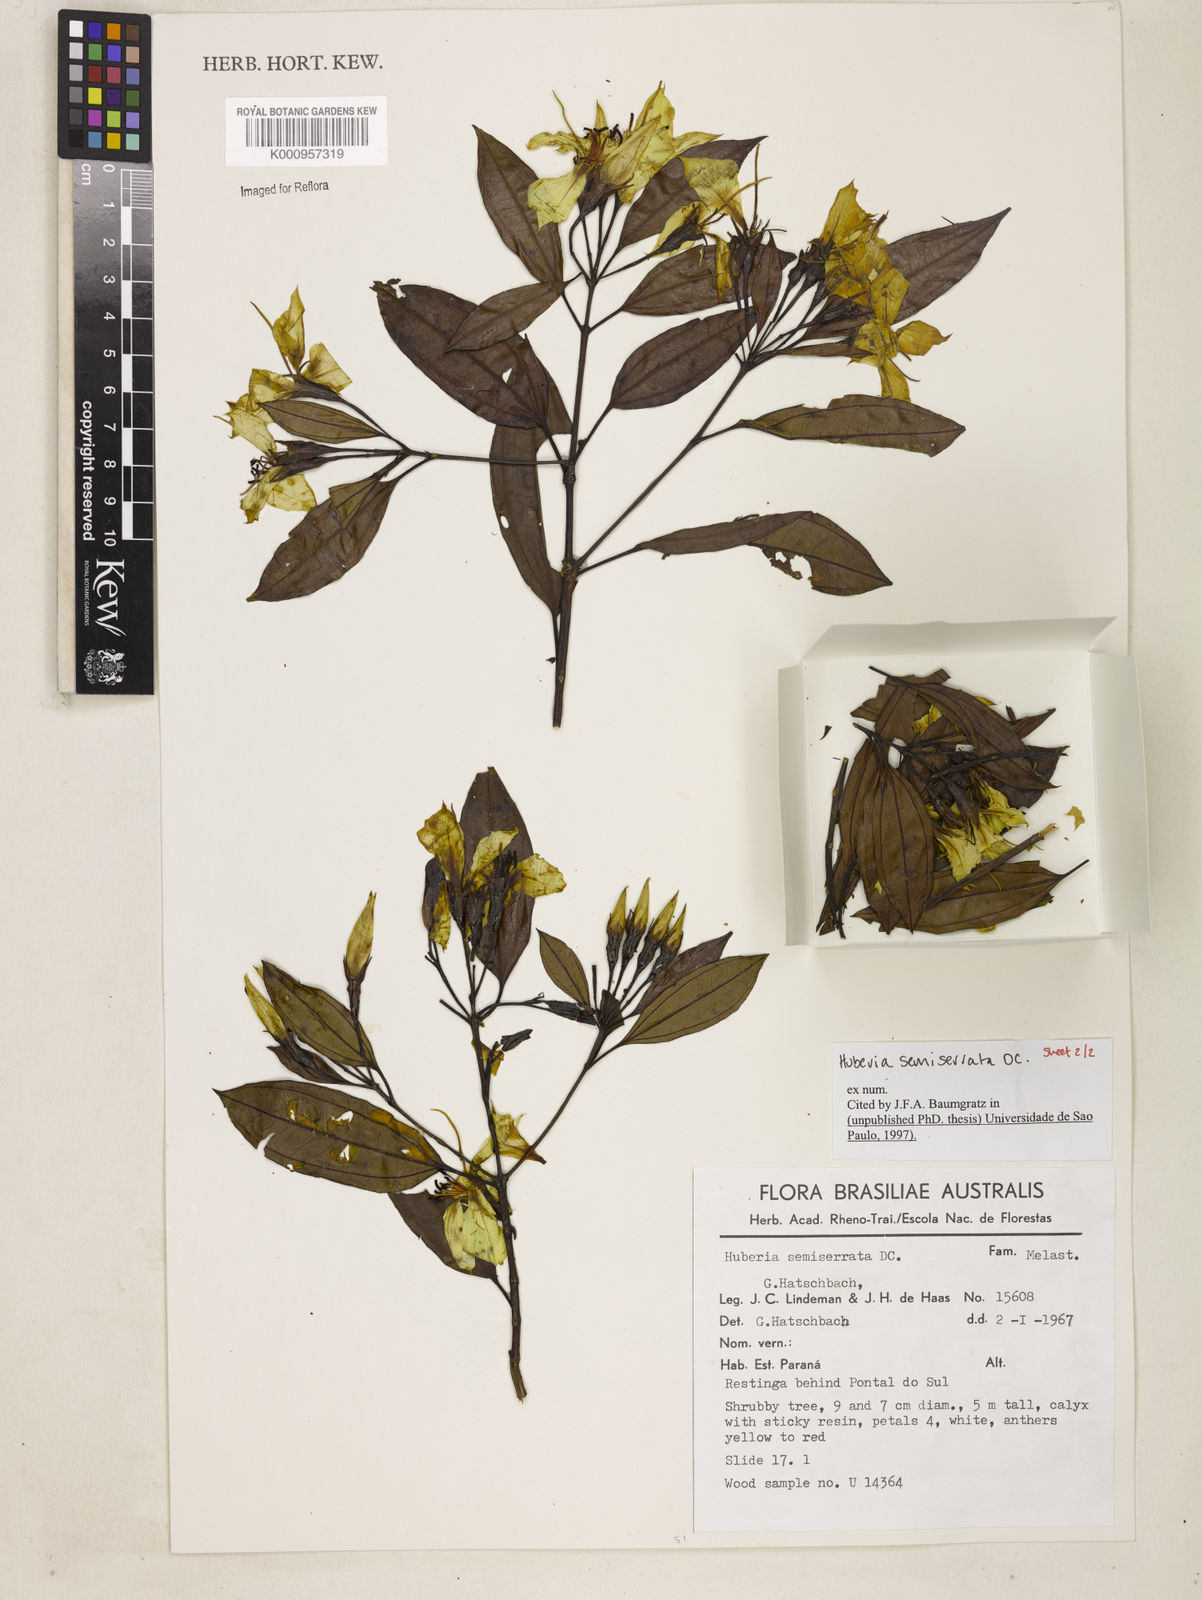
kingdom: Plantae
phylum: Tracheophyta
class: Magnoliopsida
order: Myrtales
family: Melastomataceae
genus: Huberia
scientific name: Huberia semiserrata
